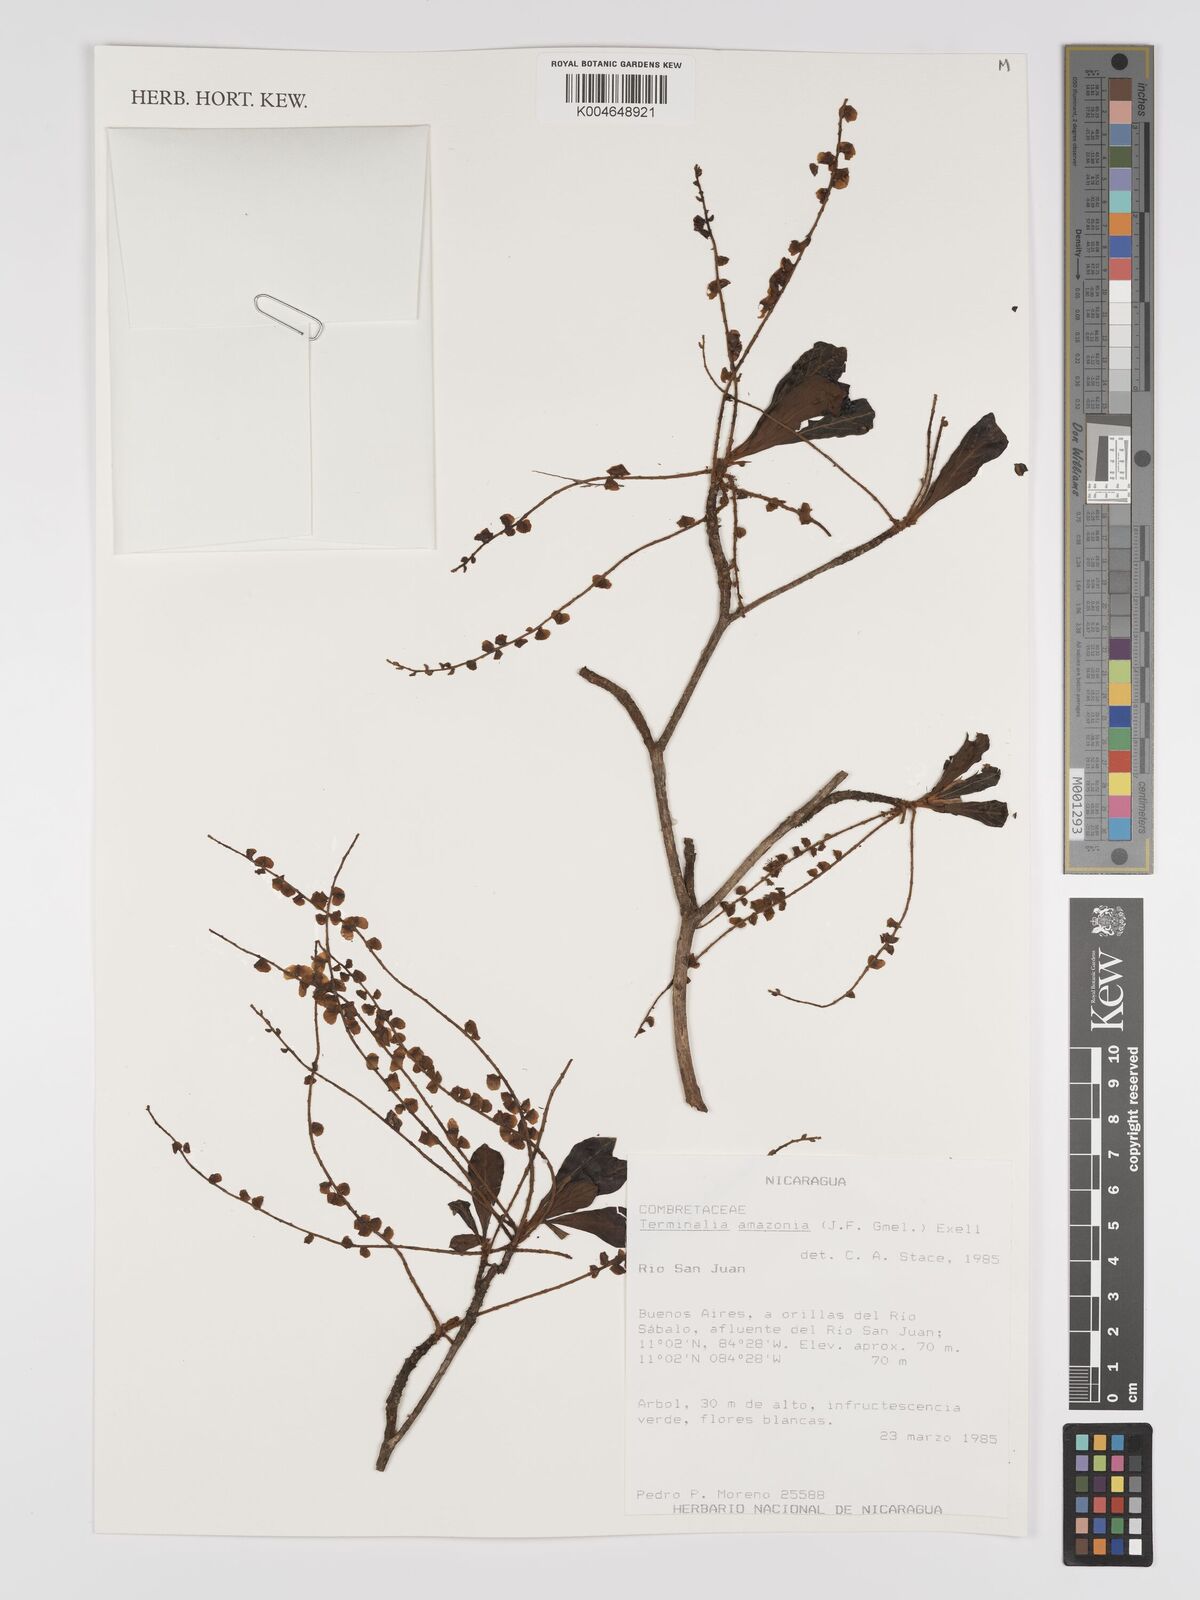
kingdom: Plantae
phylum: Tracheophyta
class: Magnoliopsida
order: Myrtales
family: Combretaceae
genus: Terminalia
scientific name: Terminalia amazonica
